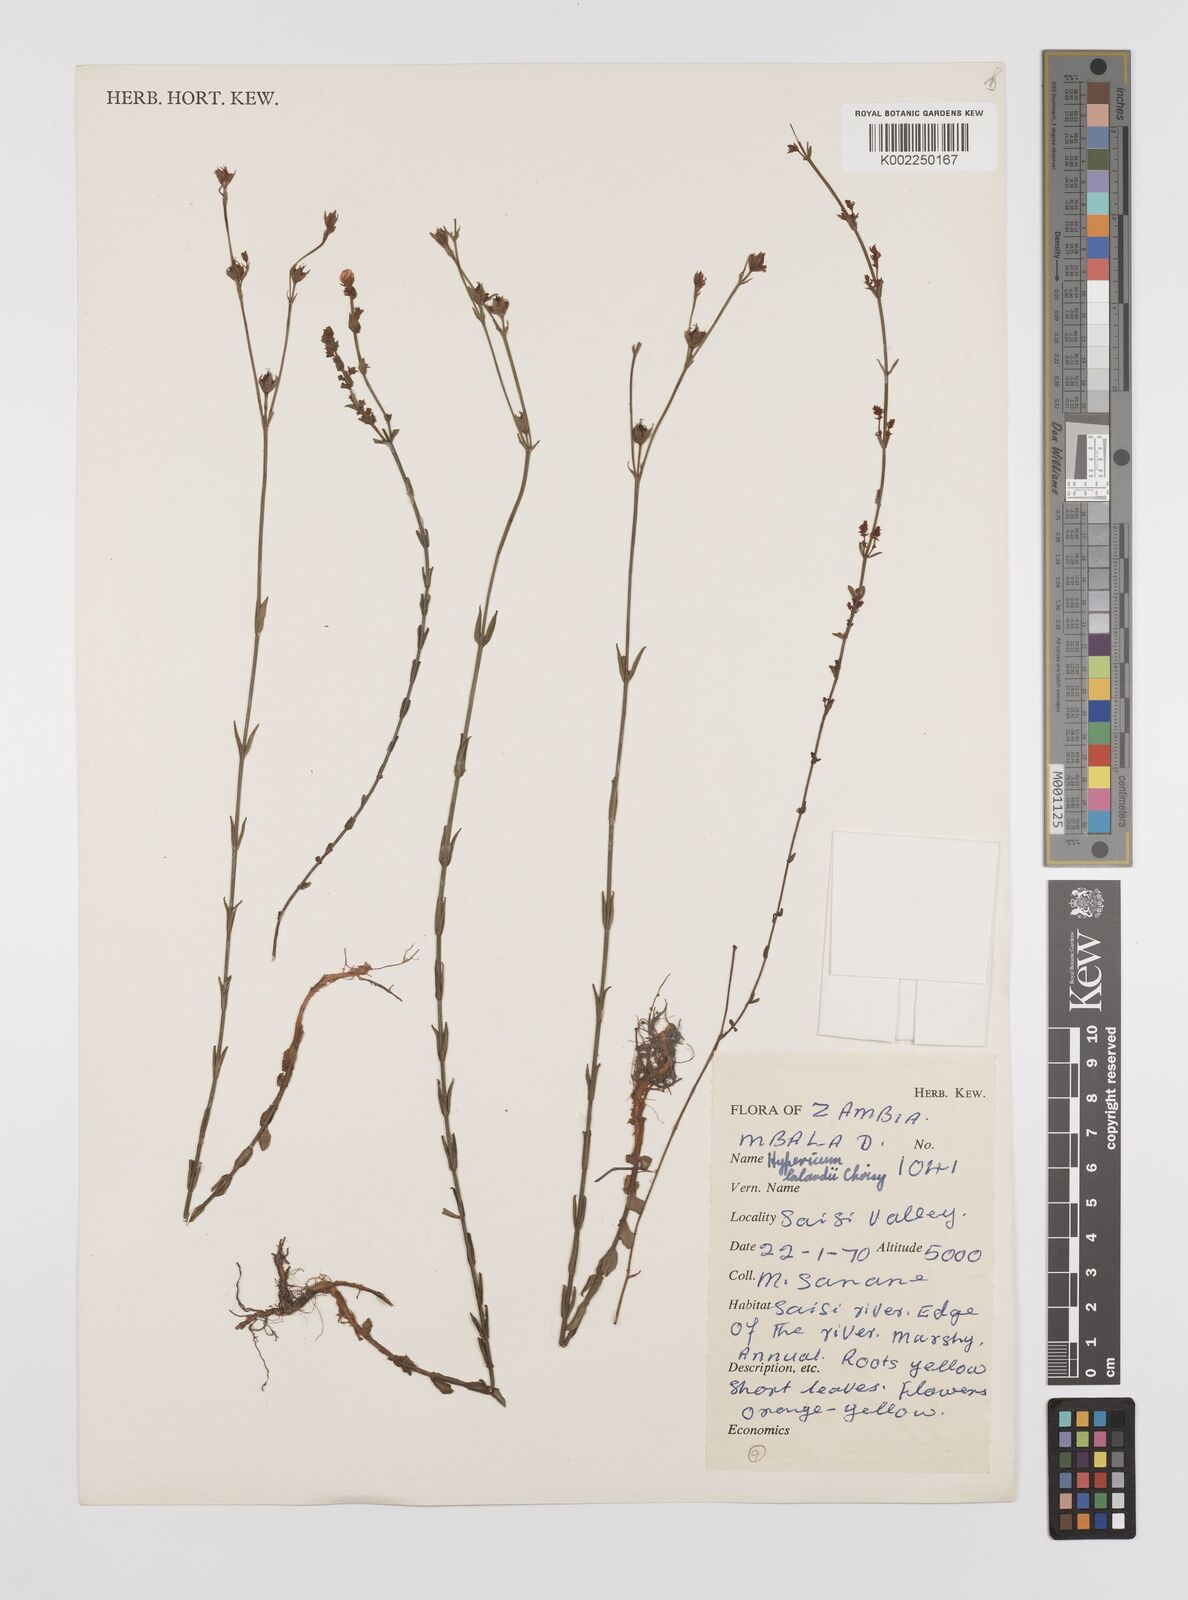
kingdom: Plantae
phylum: Tracheophyta
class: Magnoliopsida
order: Malpighiales
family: Hypericaceae
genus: Hypericum
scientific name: Hypericum lalandii
